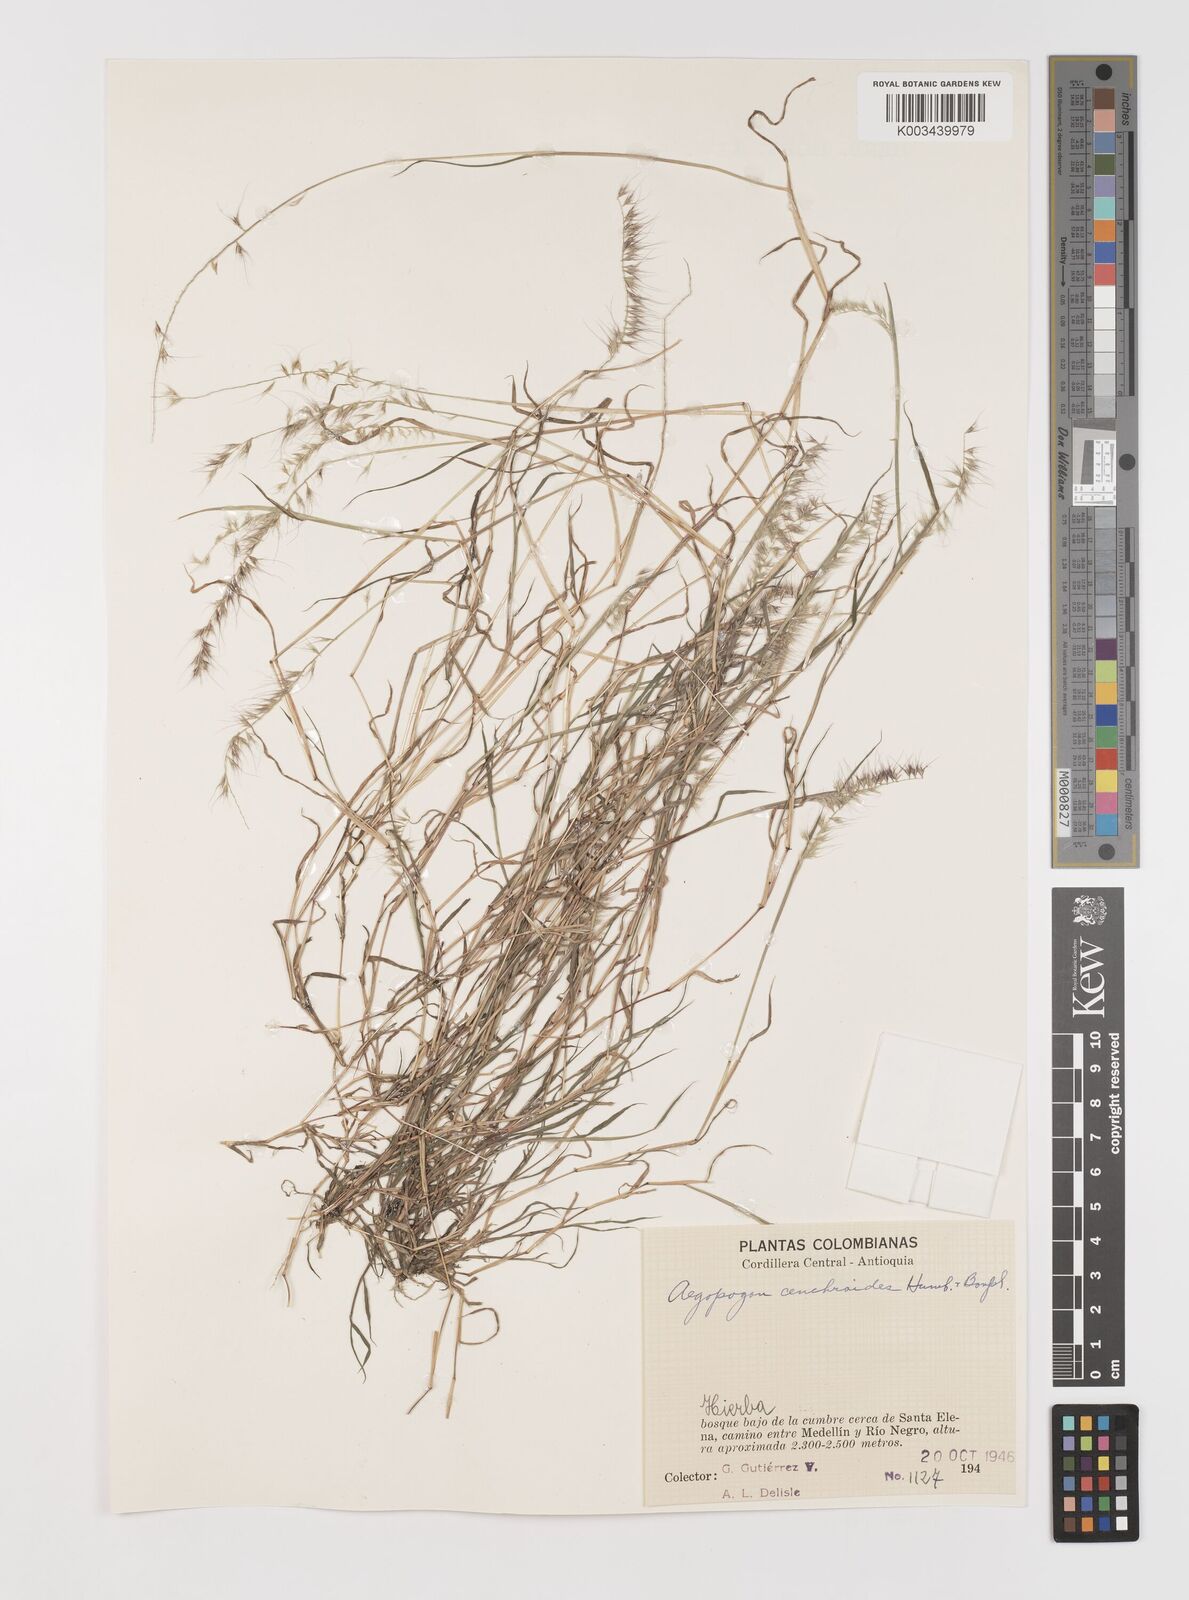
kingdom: Plantae
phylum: Tracheophyta
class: Liliopsida
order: Poales
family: Poaceae
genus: Muhlenbergia
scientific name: Muhlenbergia cenchroides
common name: Relaxgrass
